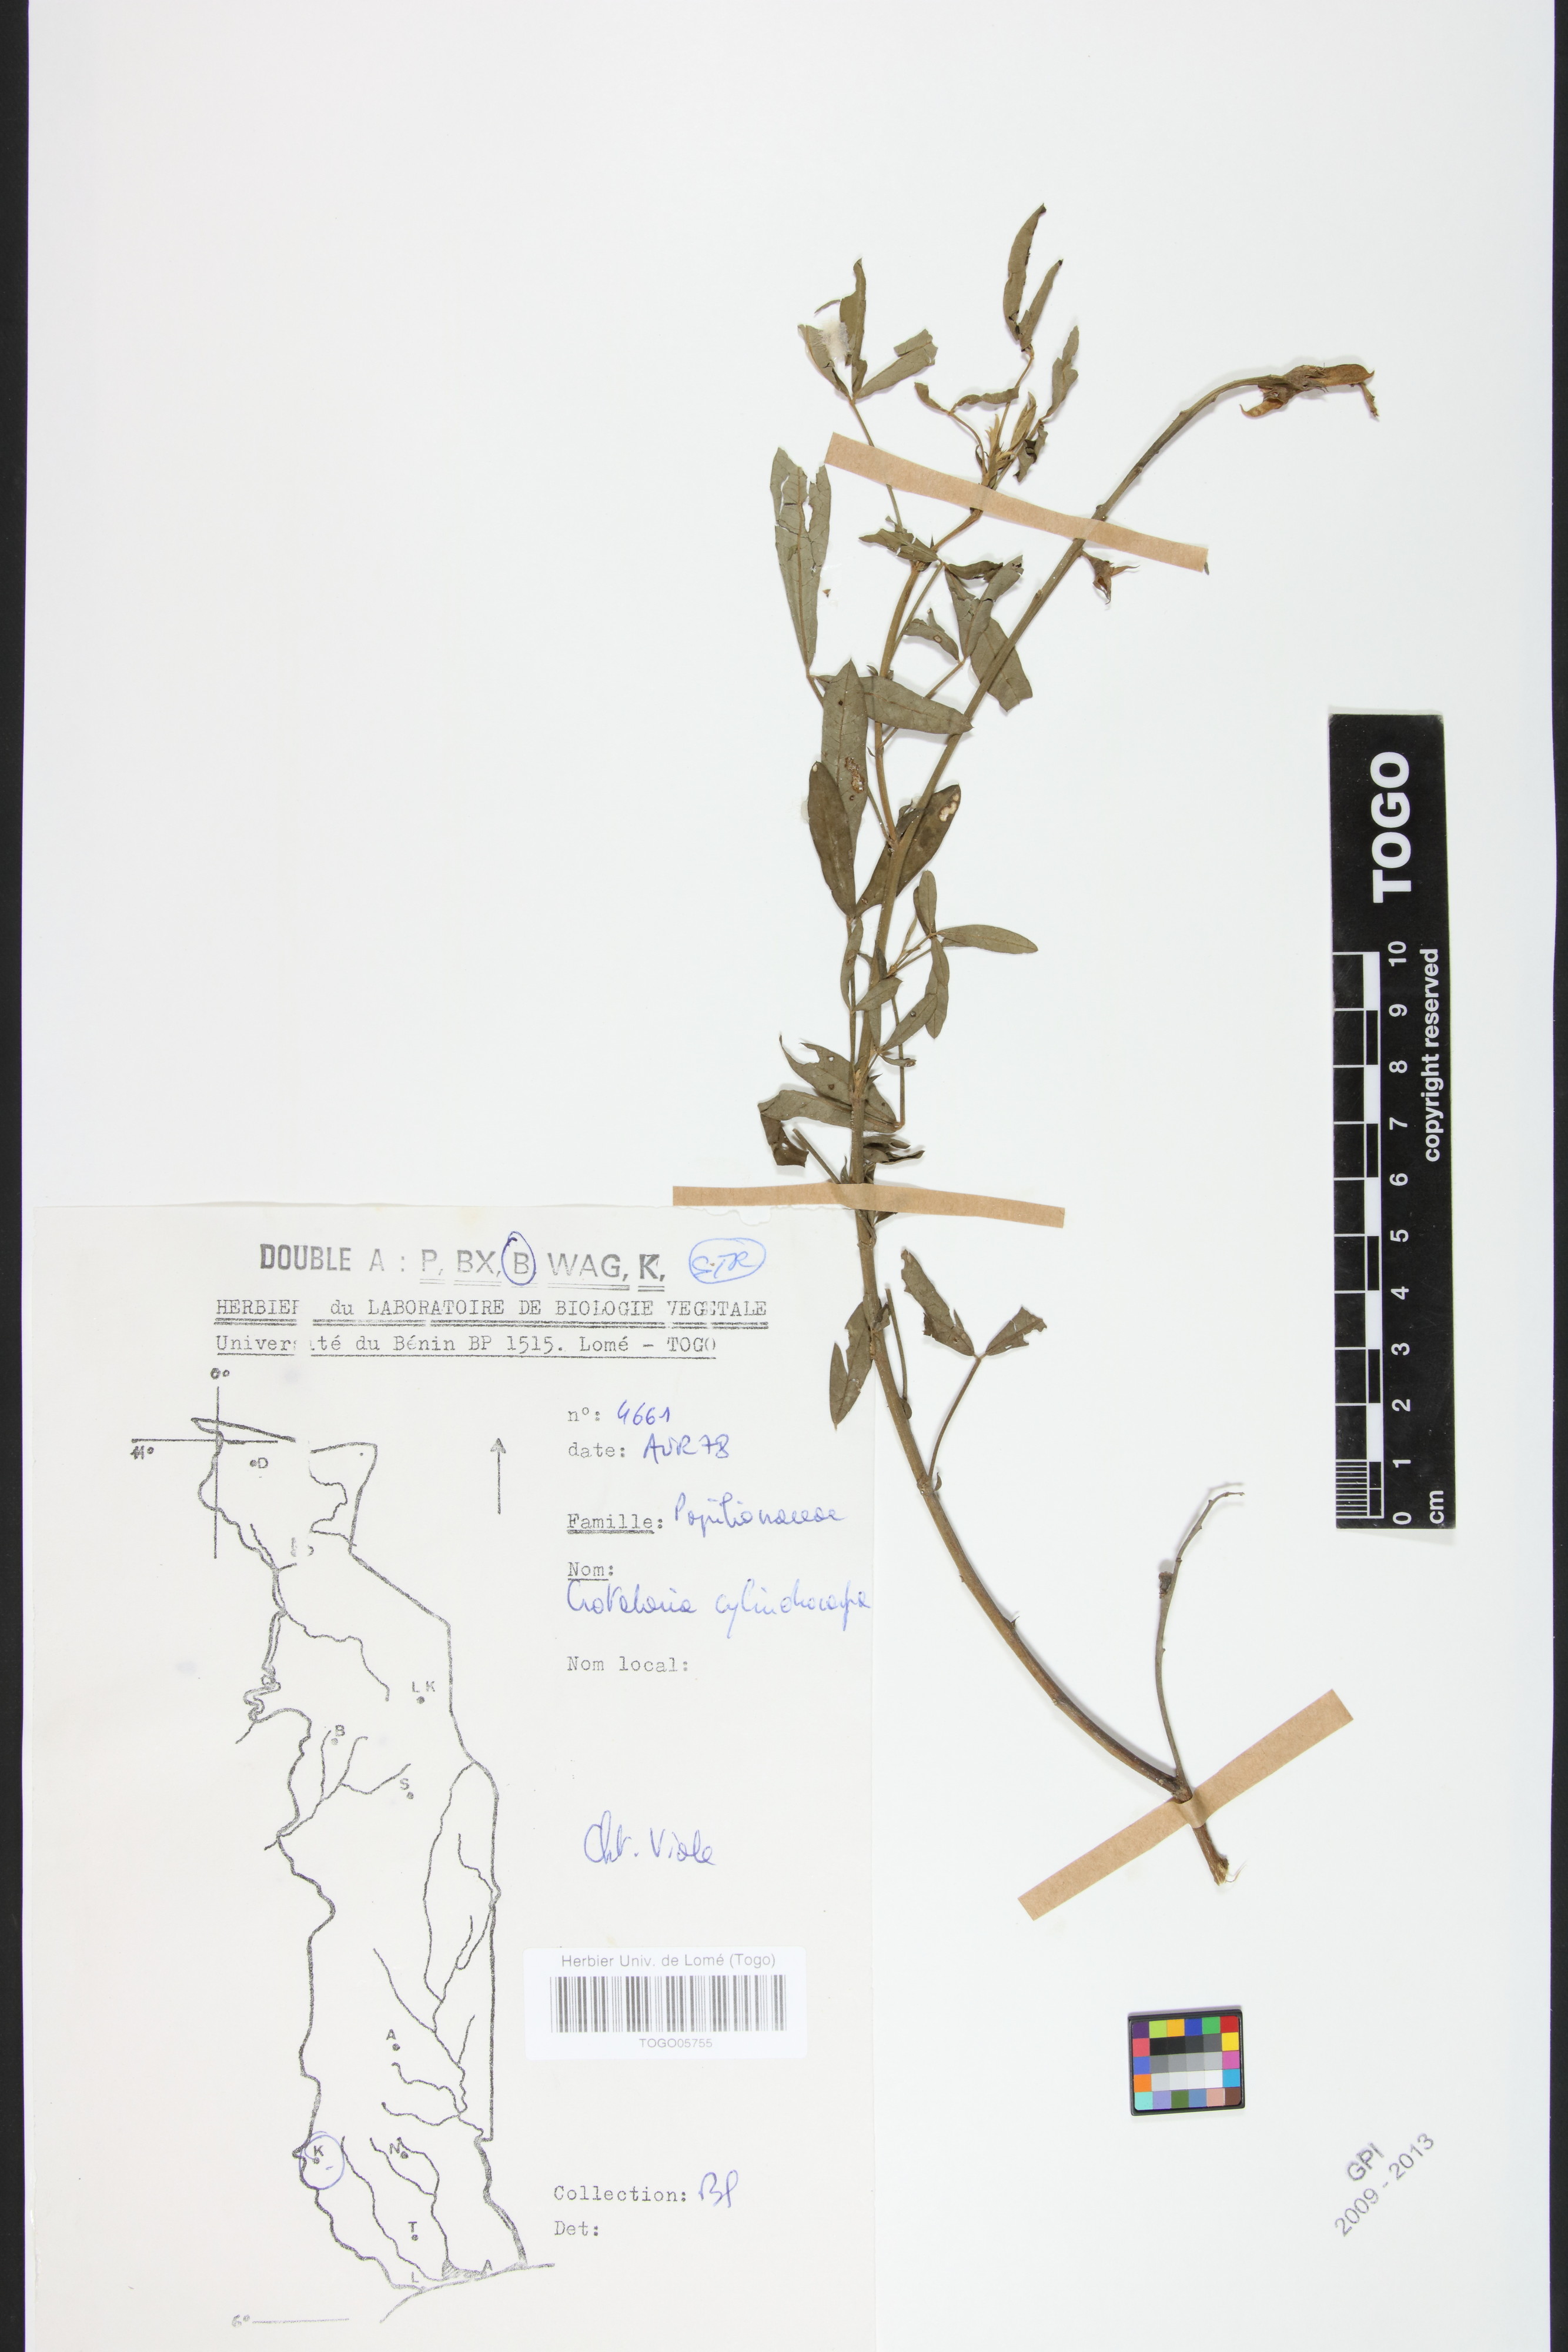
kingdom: Plantae
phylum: Tracheophyta
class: Magnoliopsida
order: Fabales
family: Fabaceae
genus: Crotalaria
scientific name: Crotalaria cylindrocarpa
